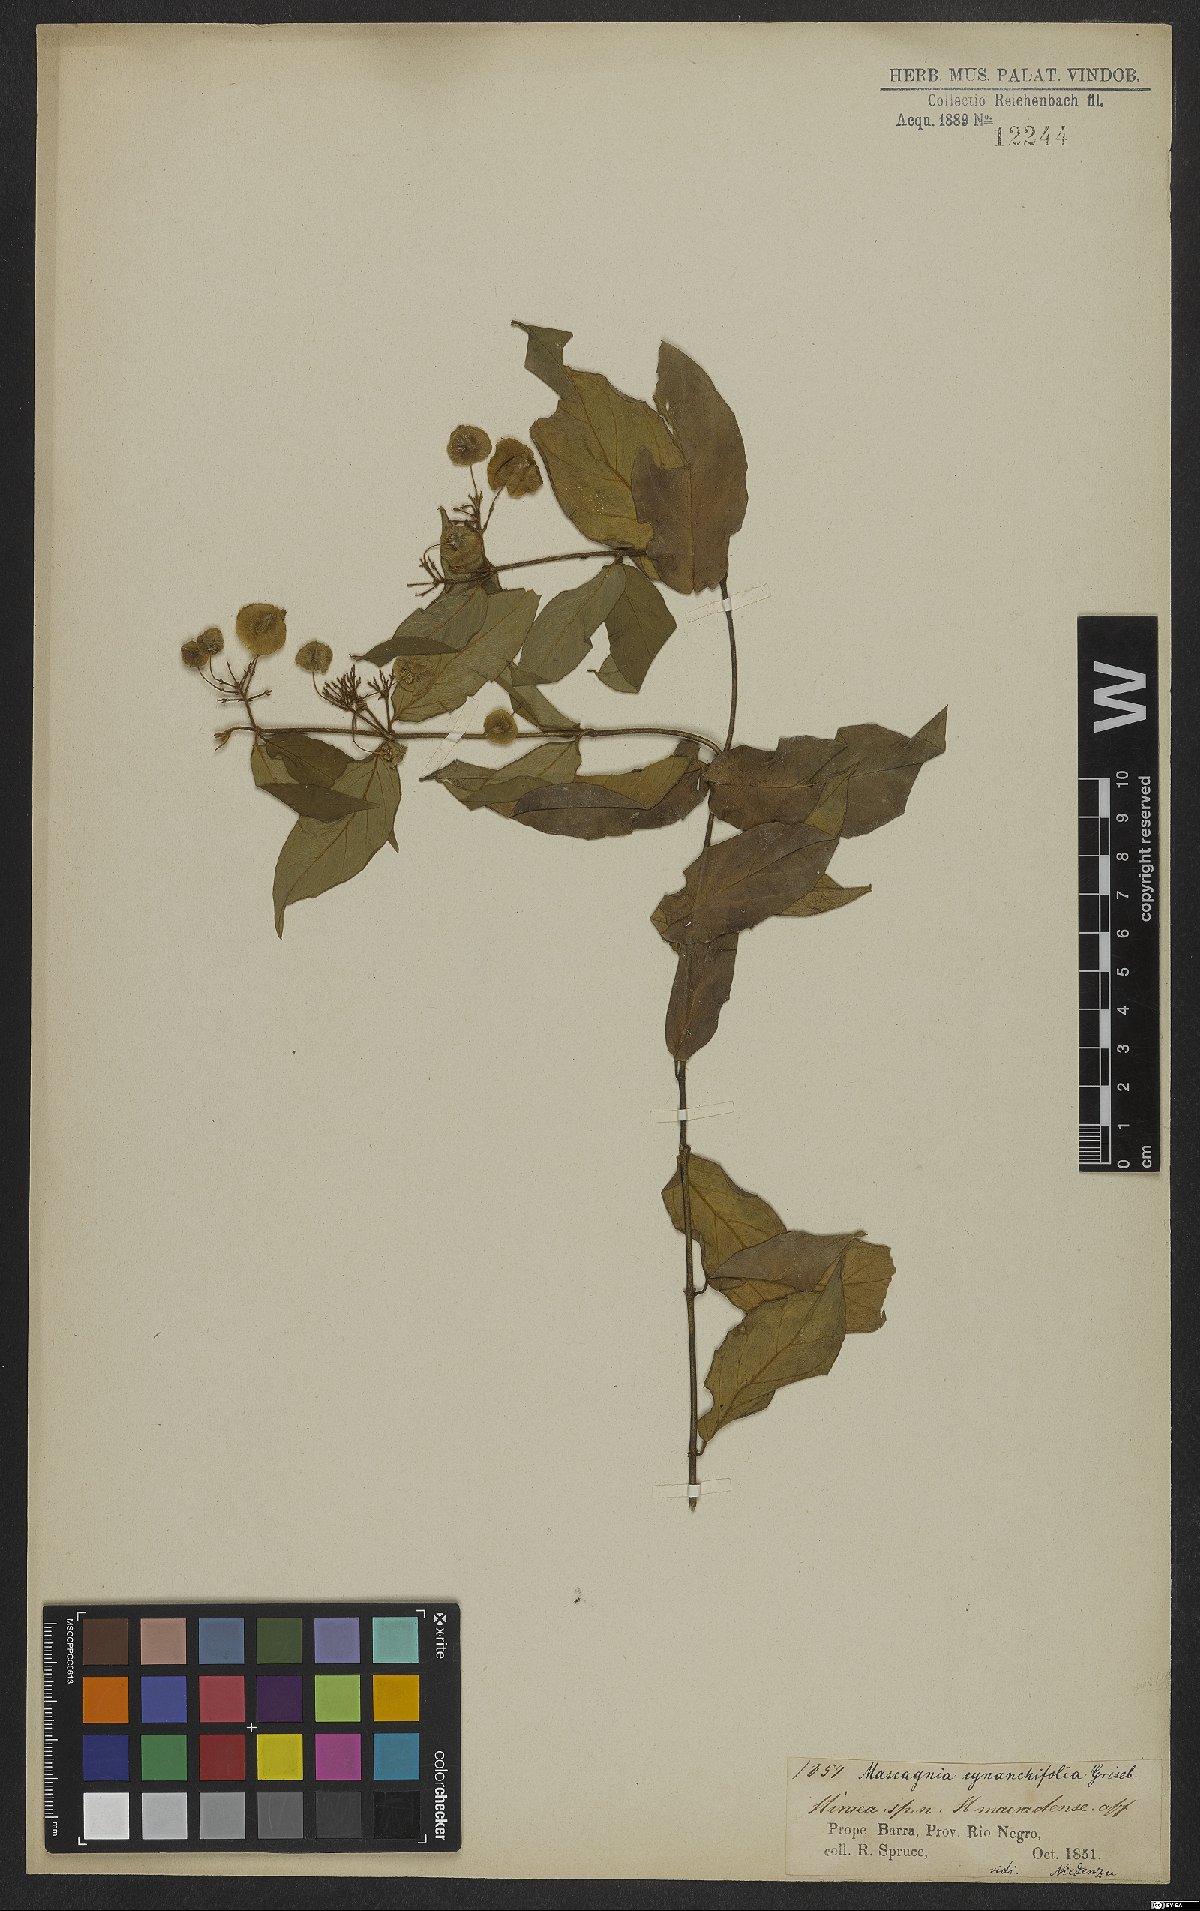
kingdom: Plantae
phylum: Tracheophyta
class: Magnoliopsida
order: Malpighiales
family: Malpighiaceae
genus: Mascagnia
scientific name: Mascagnia cynanchifolia
